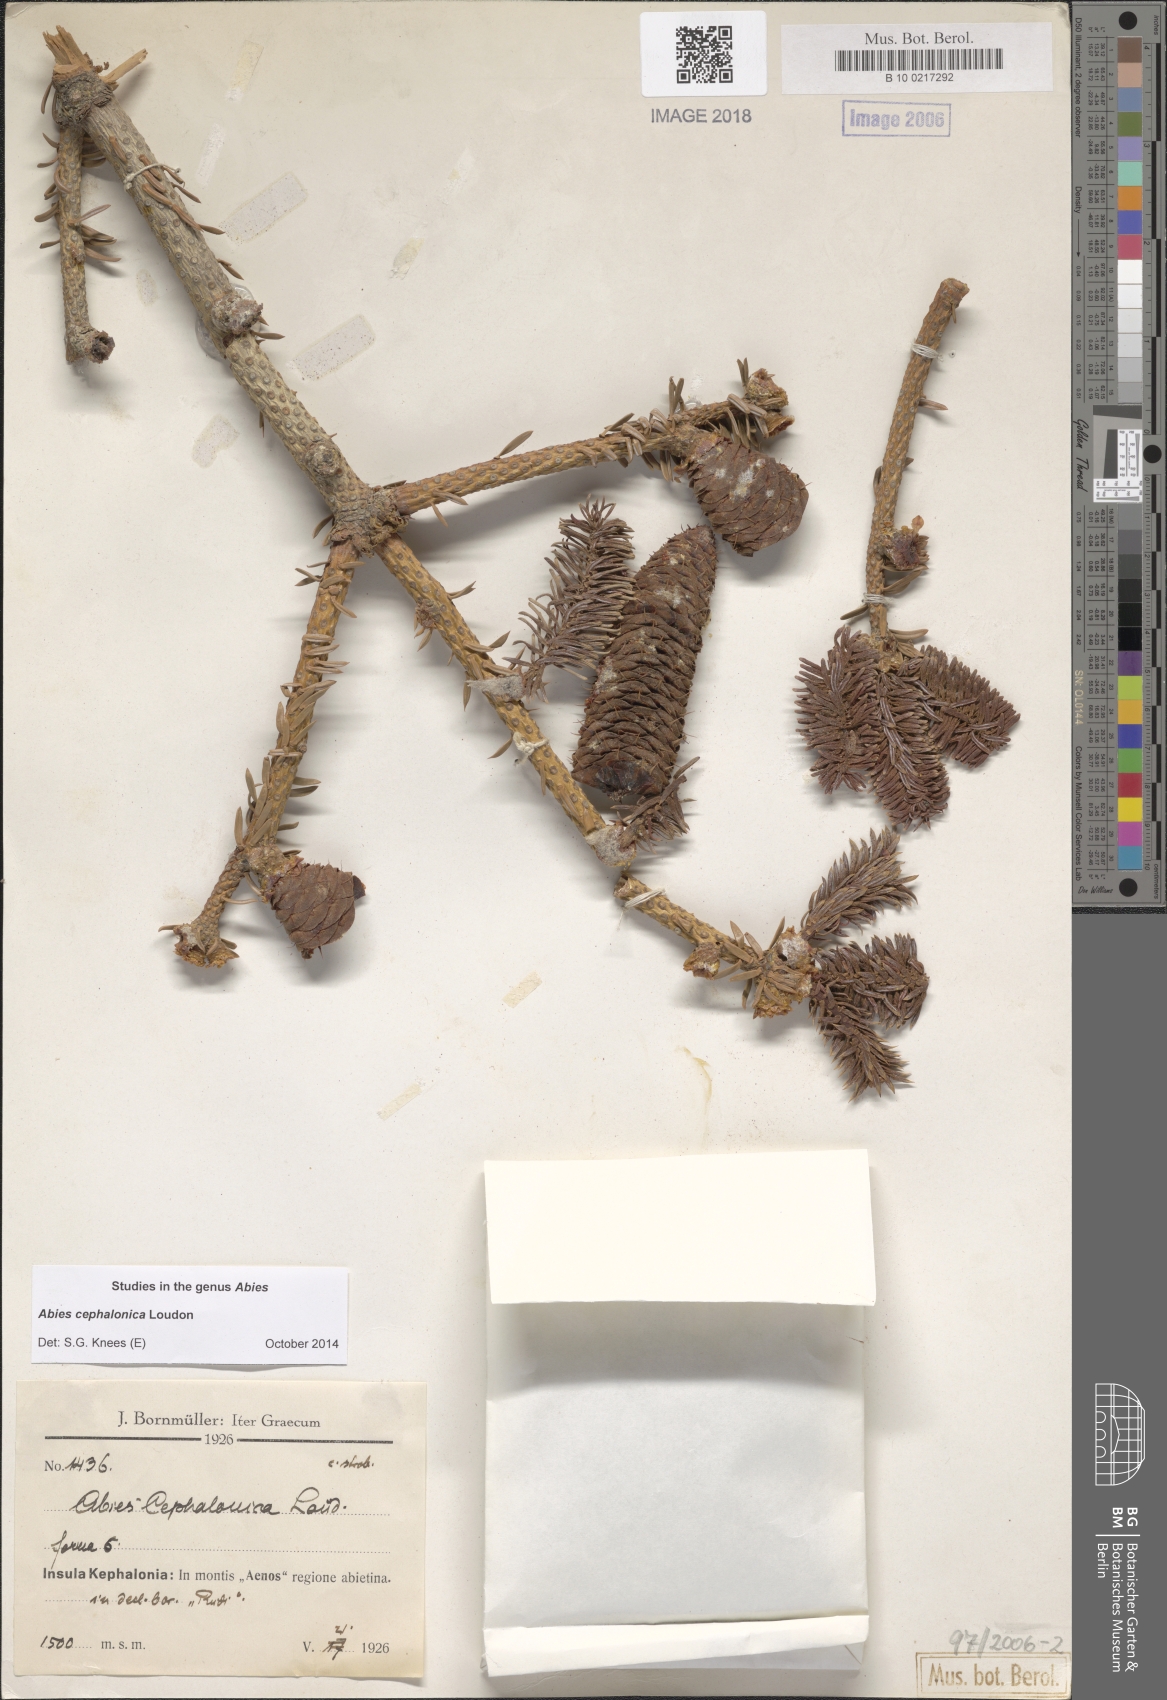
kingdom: Plantae
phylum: Tracheophyta
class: Pinopsida
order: Pinales
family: Pinaceae
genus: Abies
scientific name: Abies cephalonica
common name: Greek fir
